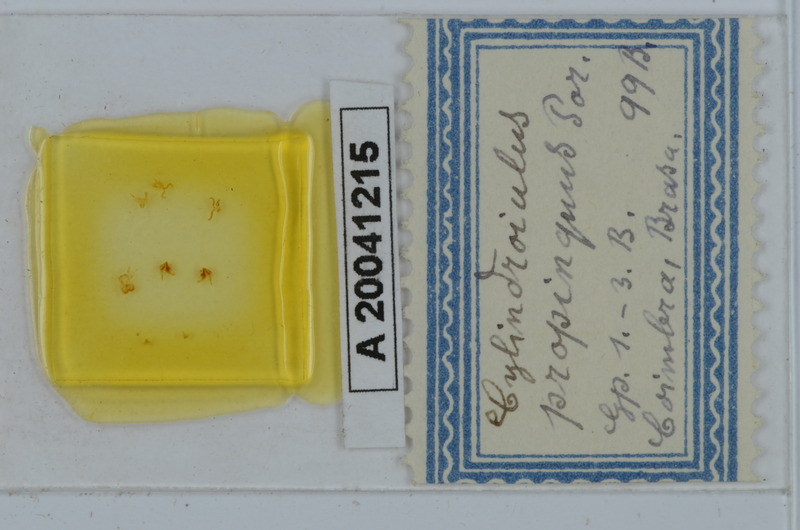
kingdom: Animalia
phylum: Arthropoda
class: Diplopoda
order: Julida
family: Julidae
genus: Cylindroiulus
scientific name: Cylindroiulus propinquus
